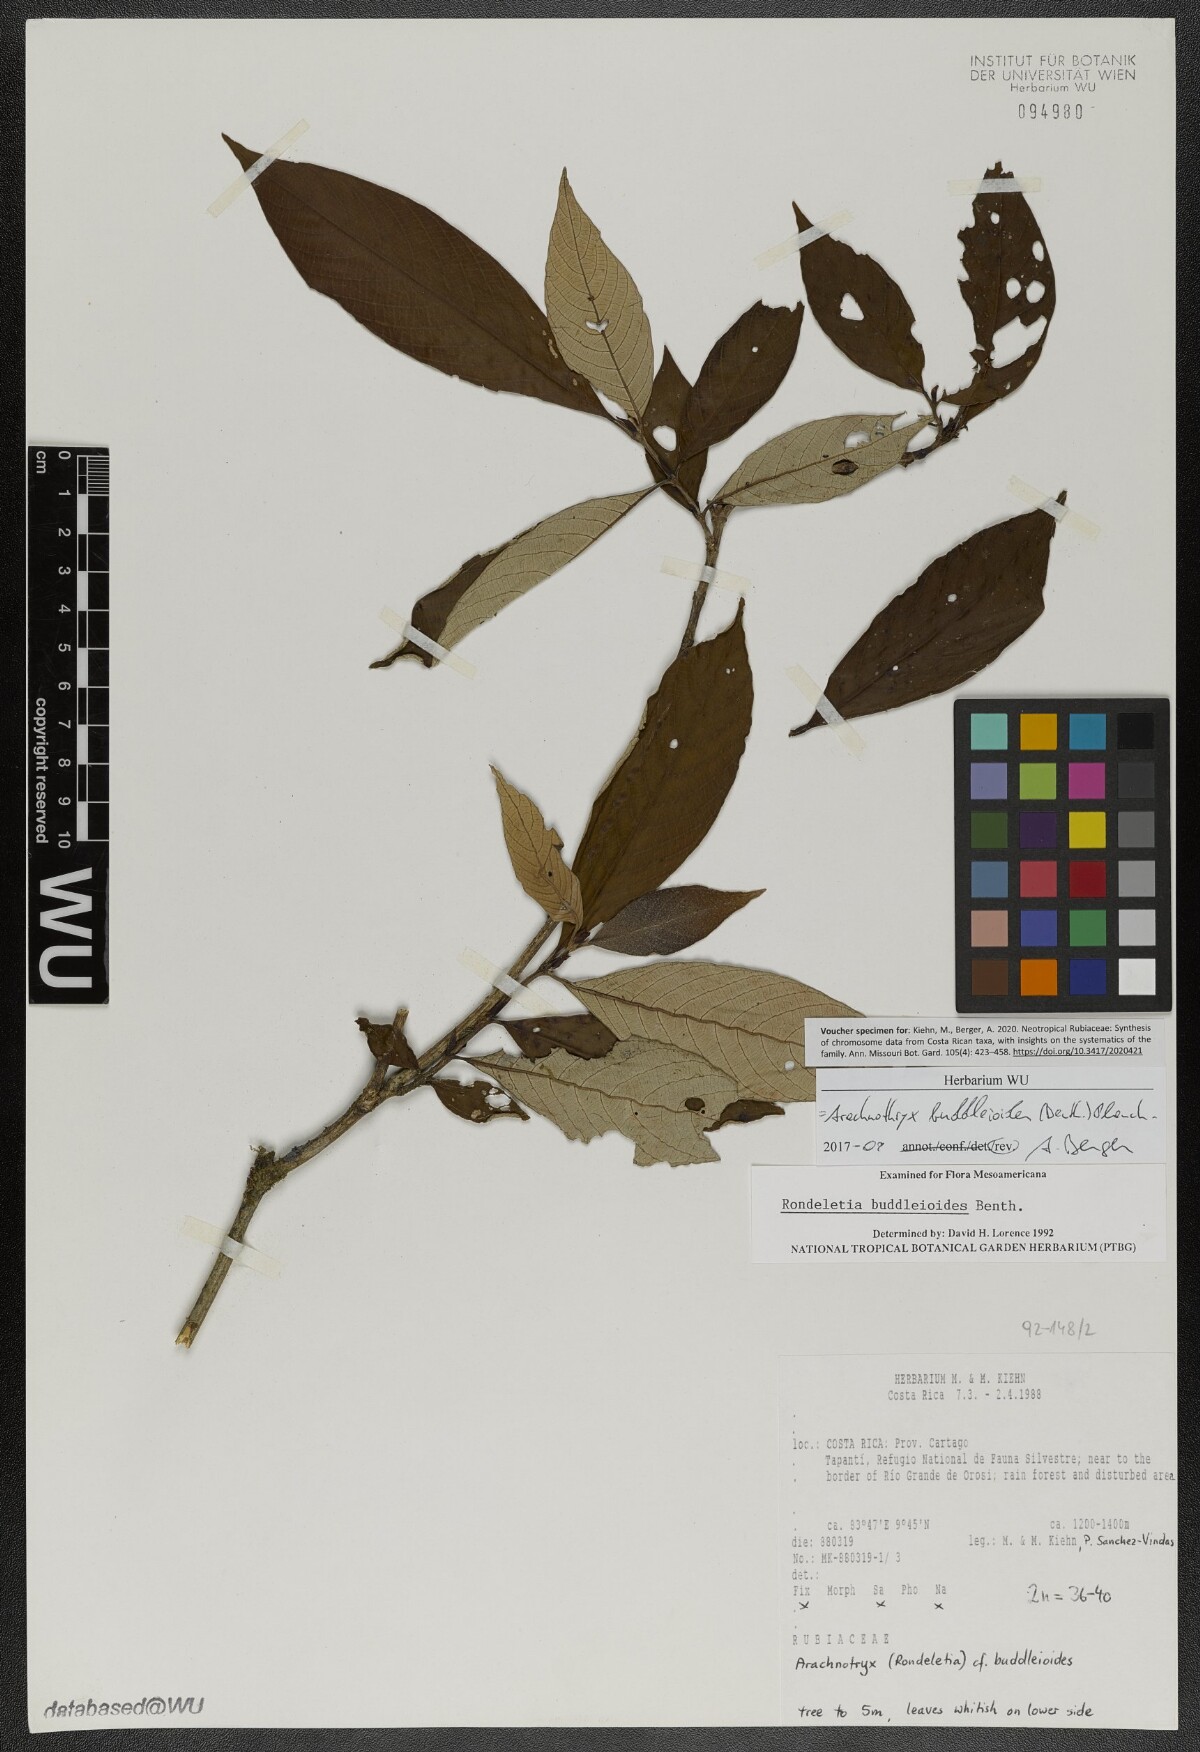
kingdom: Plantae
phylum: Tracheophyta
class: Magnoliopsida
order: Gentianales
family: Rubiaceae
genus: Arachnothryx
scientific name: Arachnothryx buddleioides
